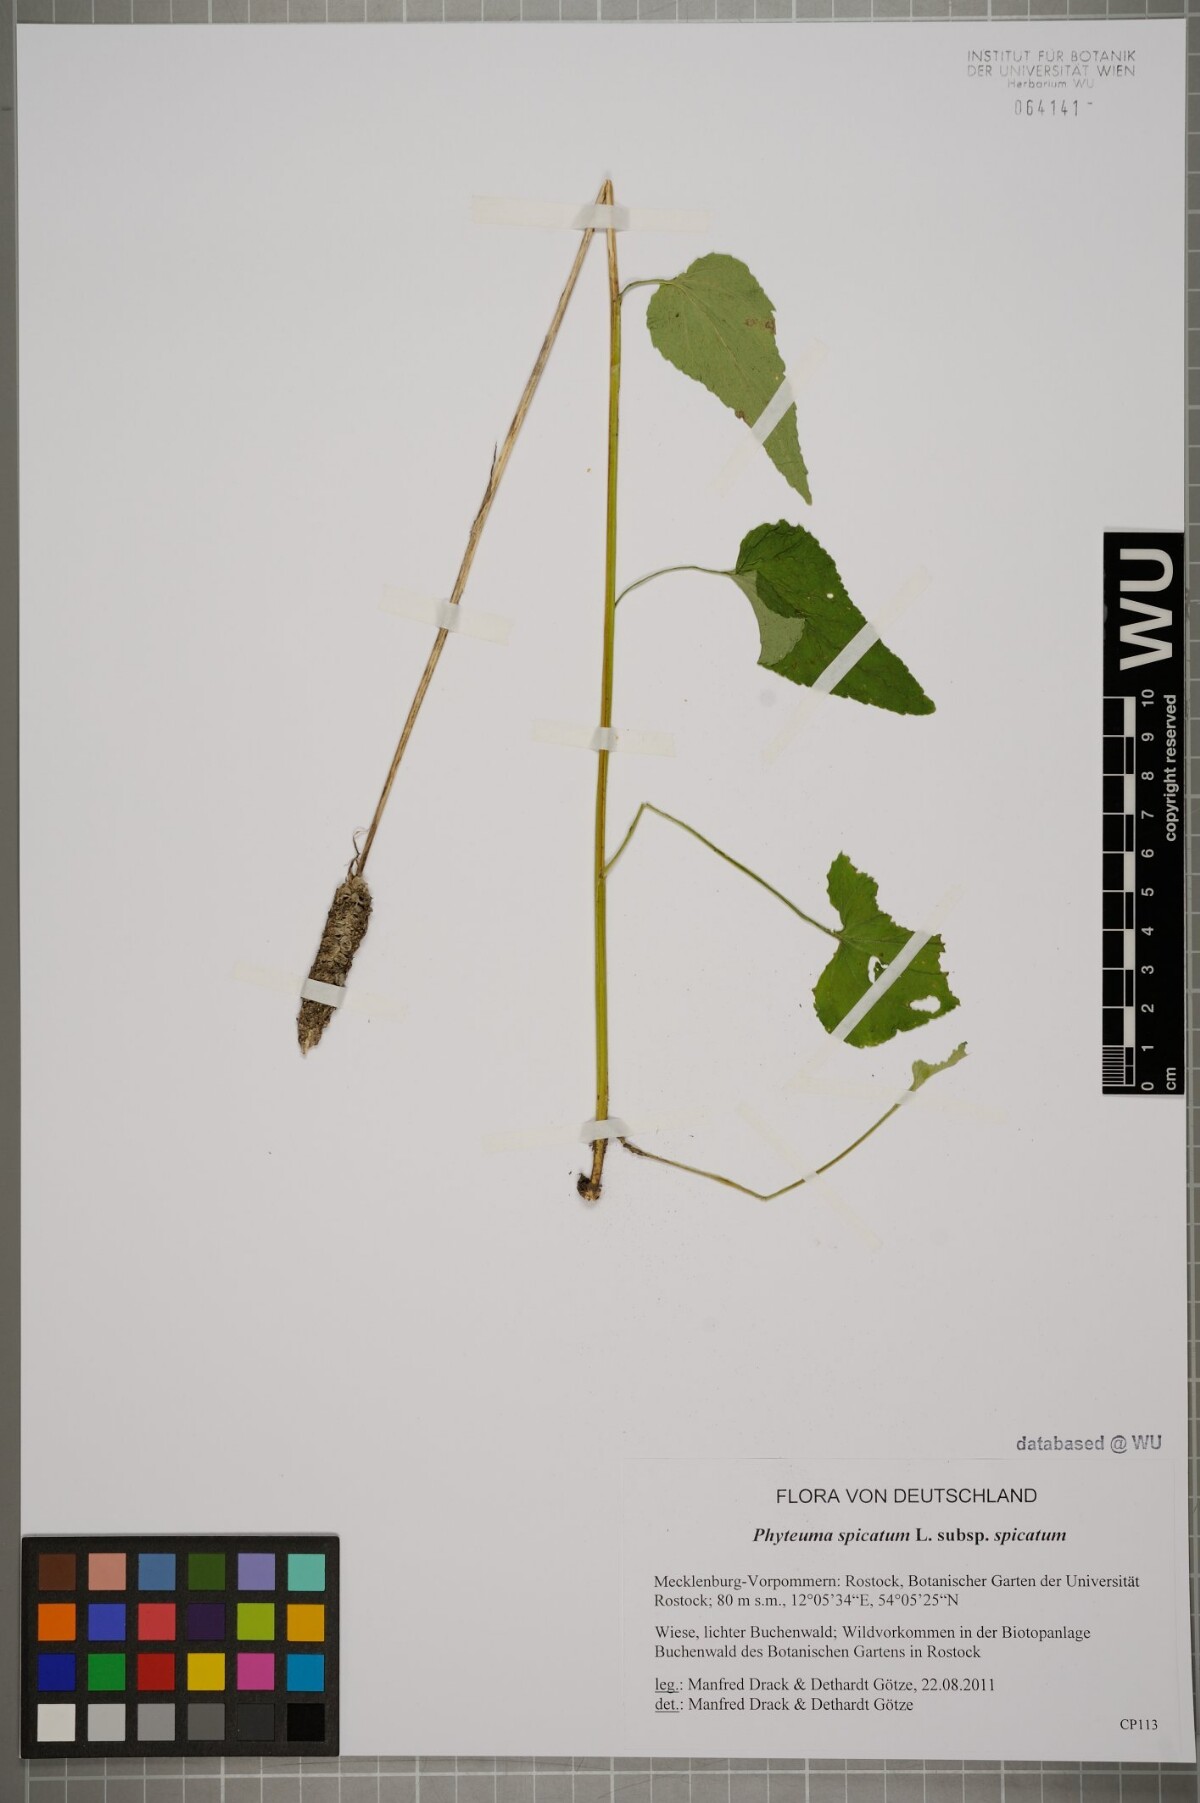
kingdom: Plantae
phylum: Tracheophyta
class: Magnoliopsida
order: Asterales
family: Campanulaceae
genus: Phyteuma
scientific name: Phyteuma spicatum
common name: Spiked rampion
